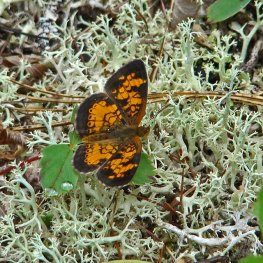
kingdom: Animalia
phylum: Arthropoda
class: Insecta
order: Lepidoptera
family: Nymphalidae
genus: Phyciodes
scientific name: Phyciodes tharos
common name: Northern Crescent
